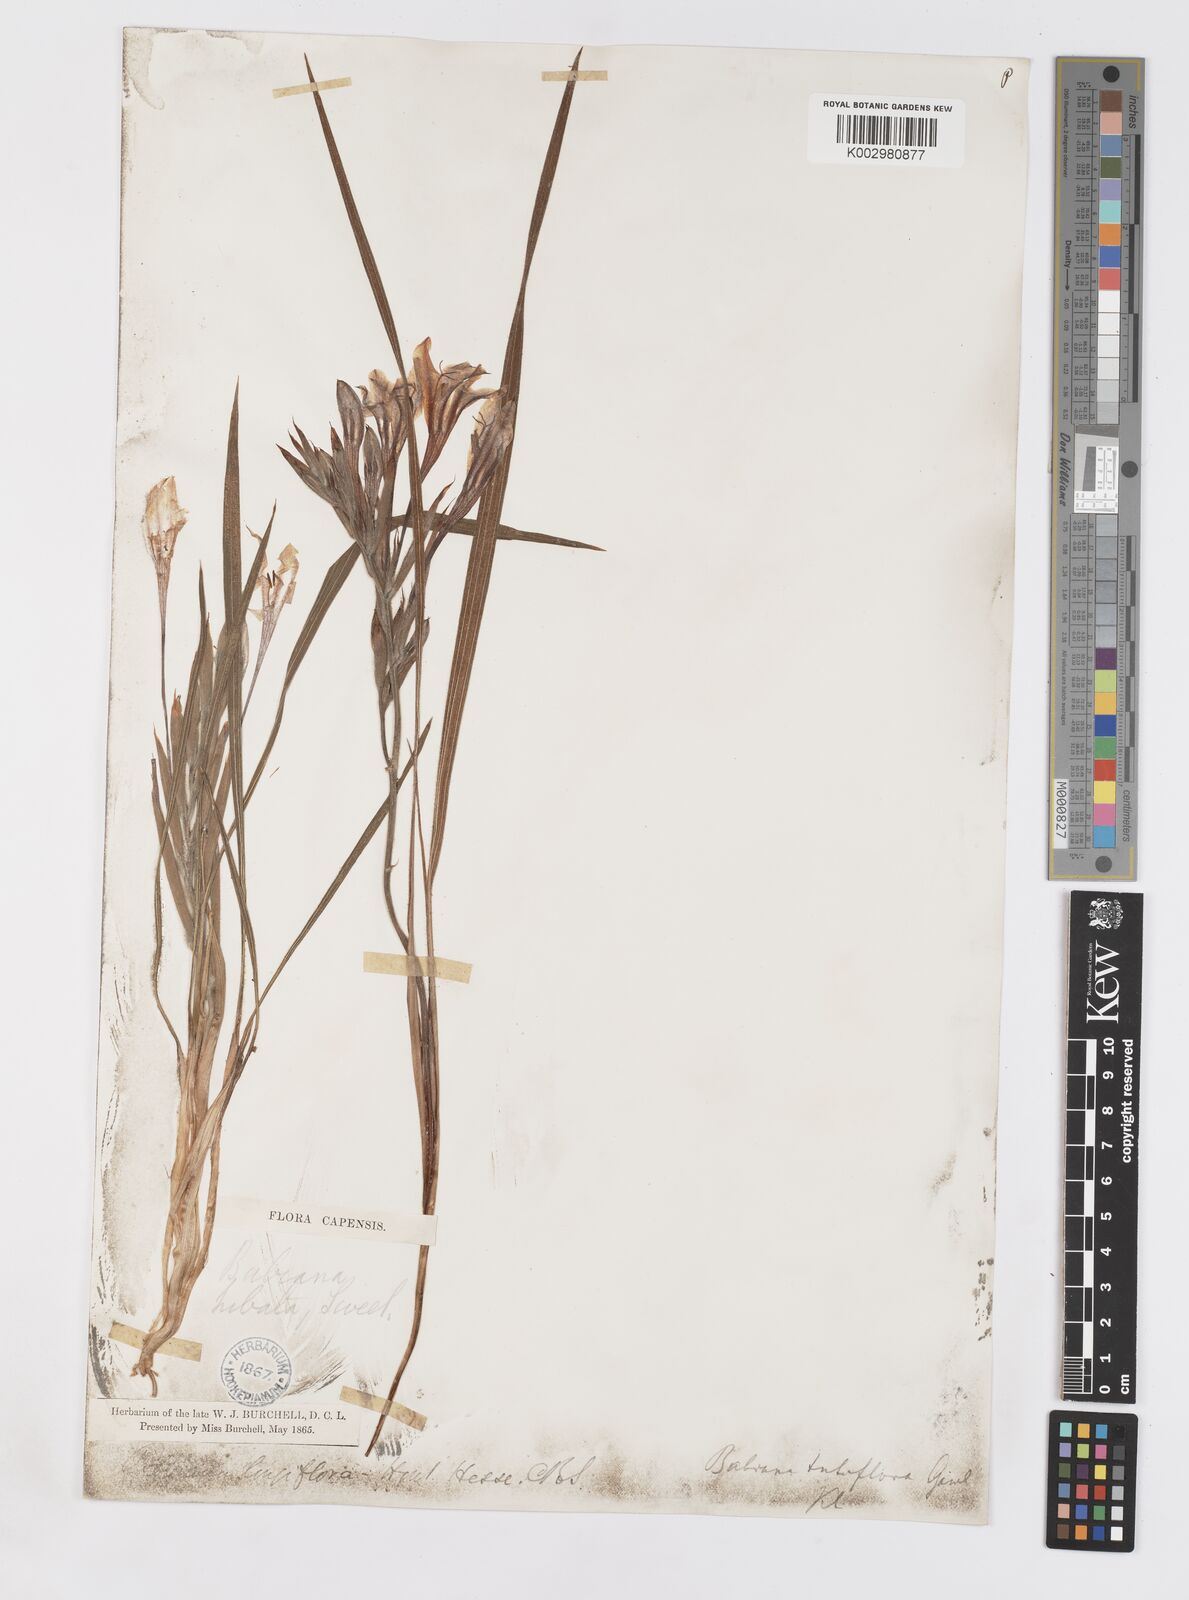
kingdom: Plantae
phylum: Tracheophyta
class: Liliopsida
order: Asparagales
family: Iridaceae
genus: Babiana
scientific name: Babiana tubulosa
